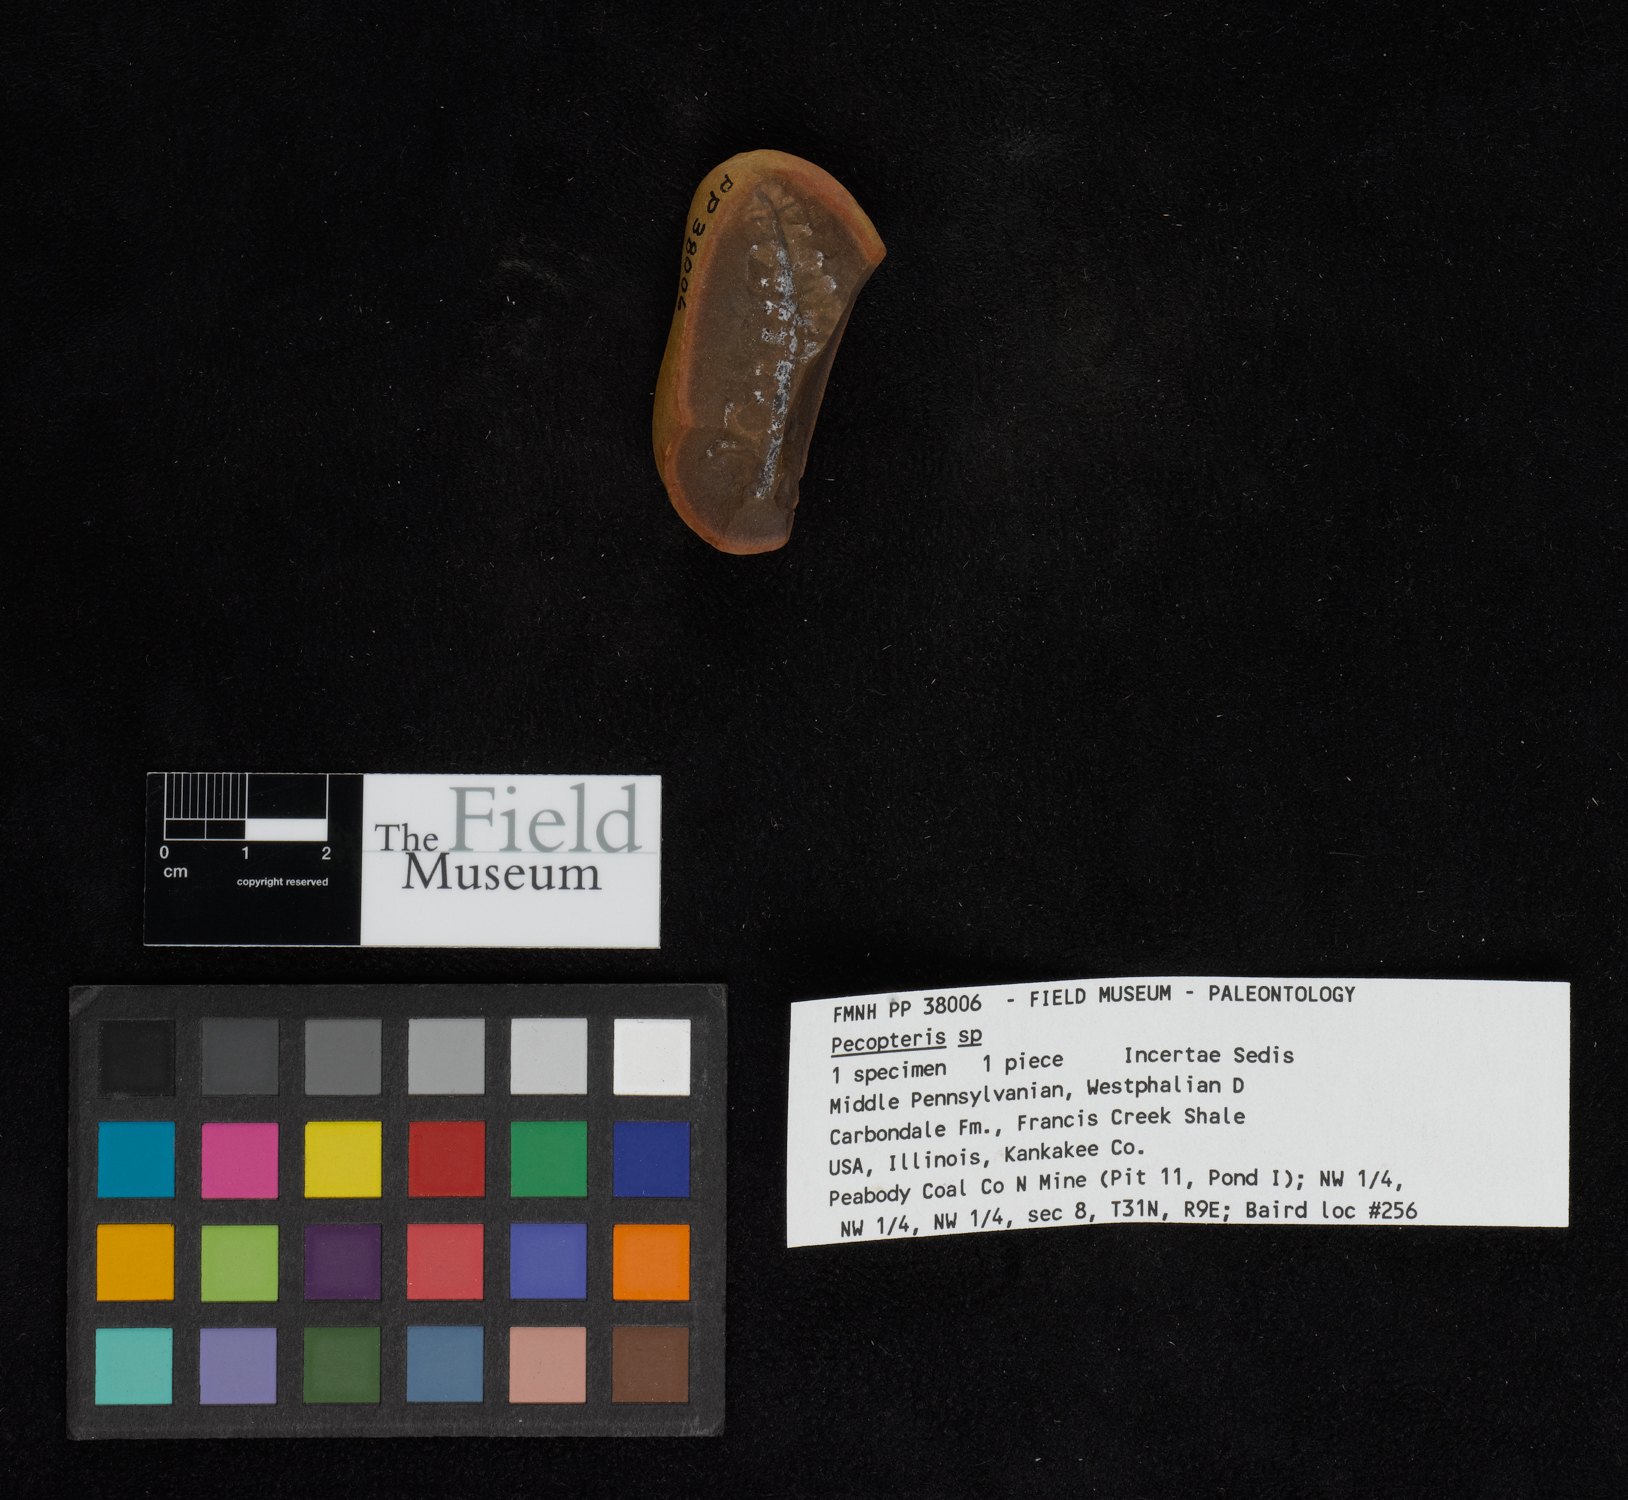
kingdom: Plantae
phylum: Tracheophyta
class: Polypodiopsida
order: Marattiales
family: Asterothecaceae
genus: Pecopteris
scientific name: Pecopteris
